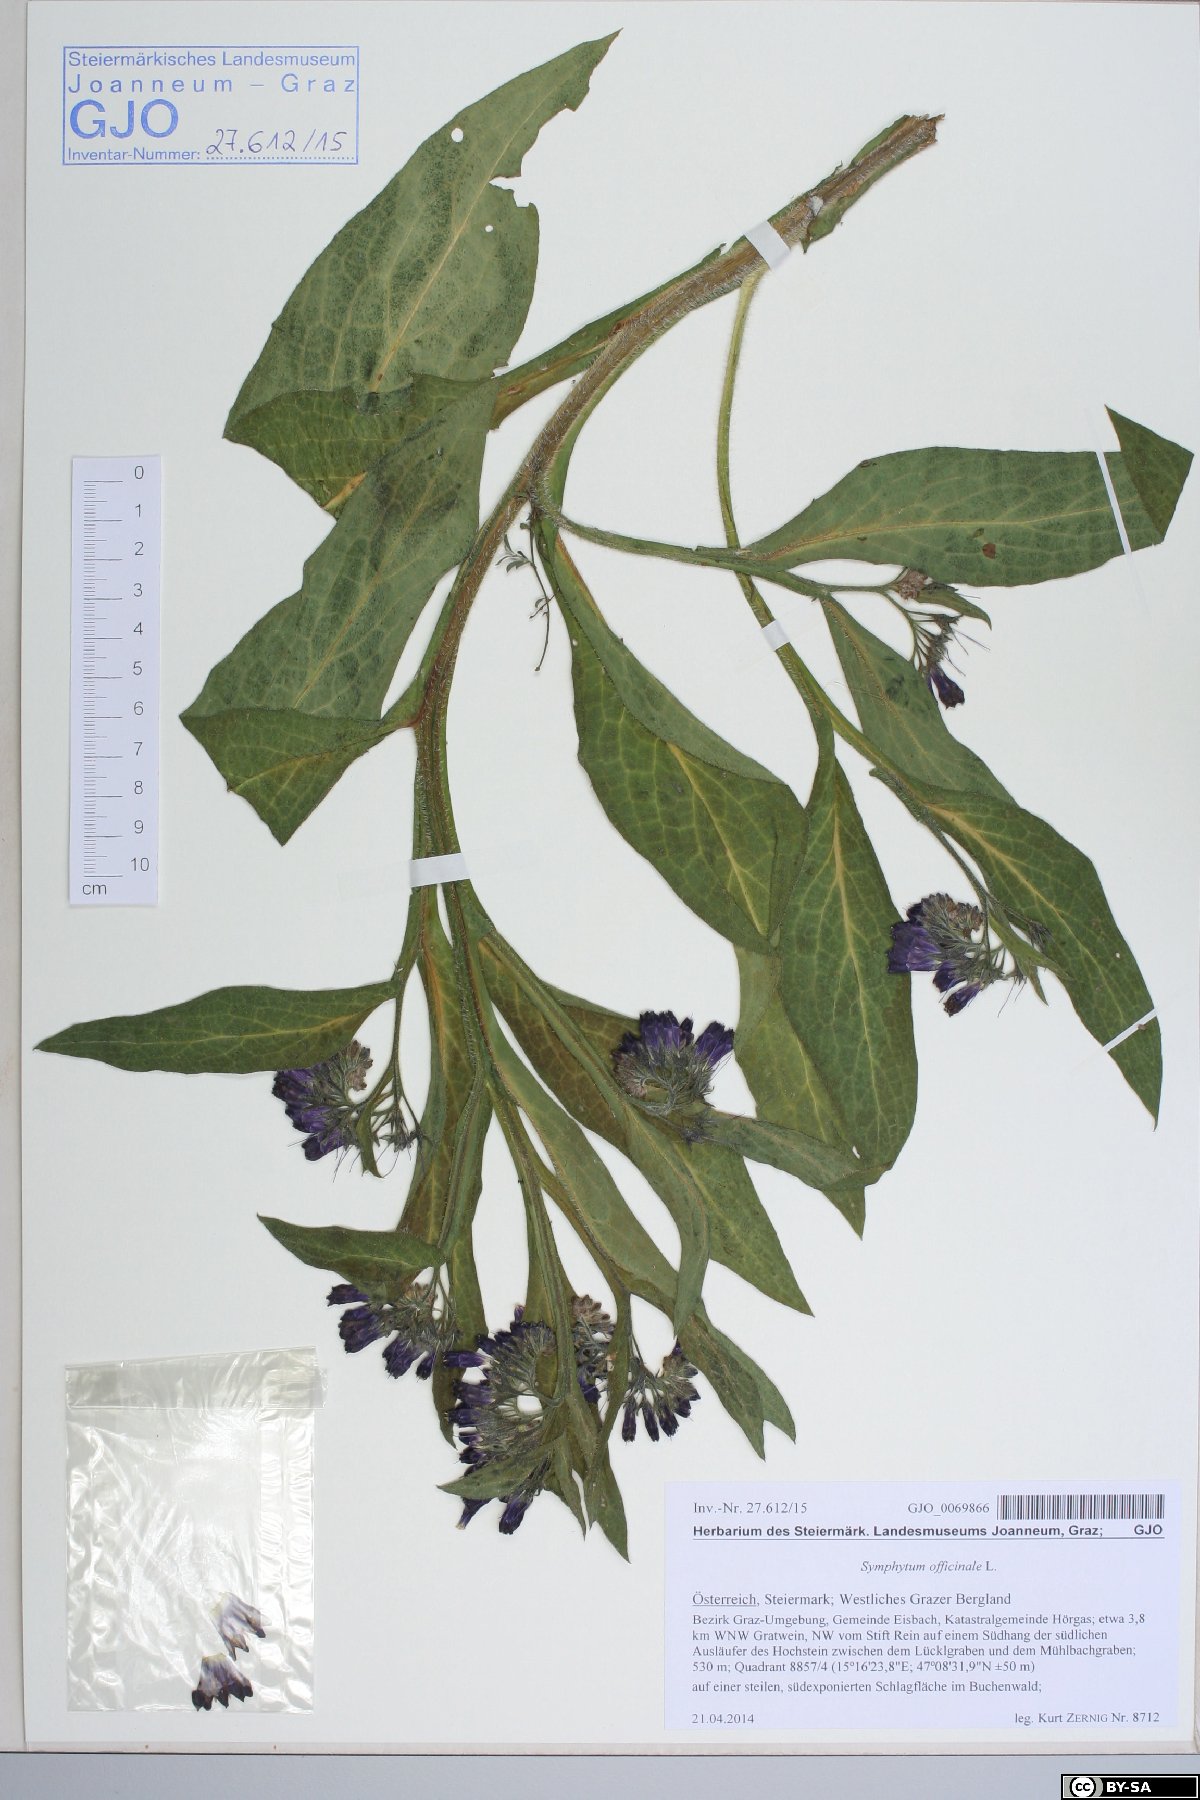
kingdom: Plantae
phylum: Tracheophyta
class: Magnoliopsida
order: Boraginales
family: Boraginaceae
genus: Symphytum
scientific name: Symphytum officinale
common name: Common comfrey
